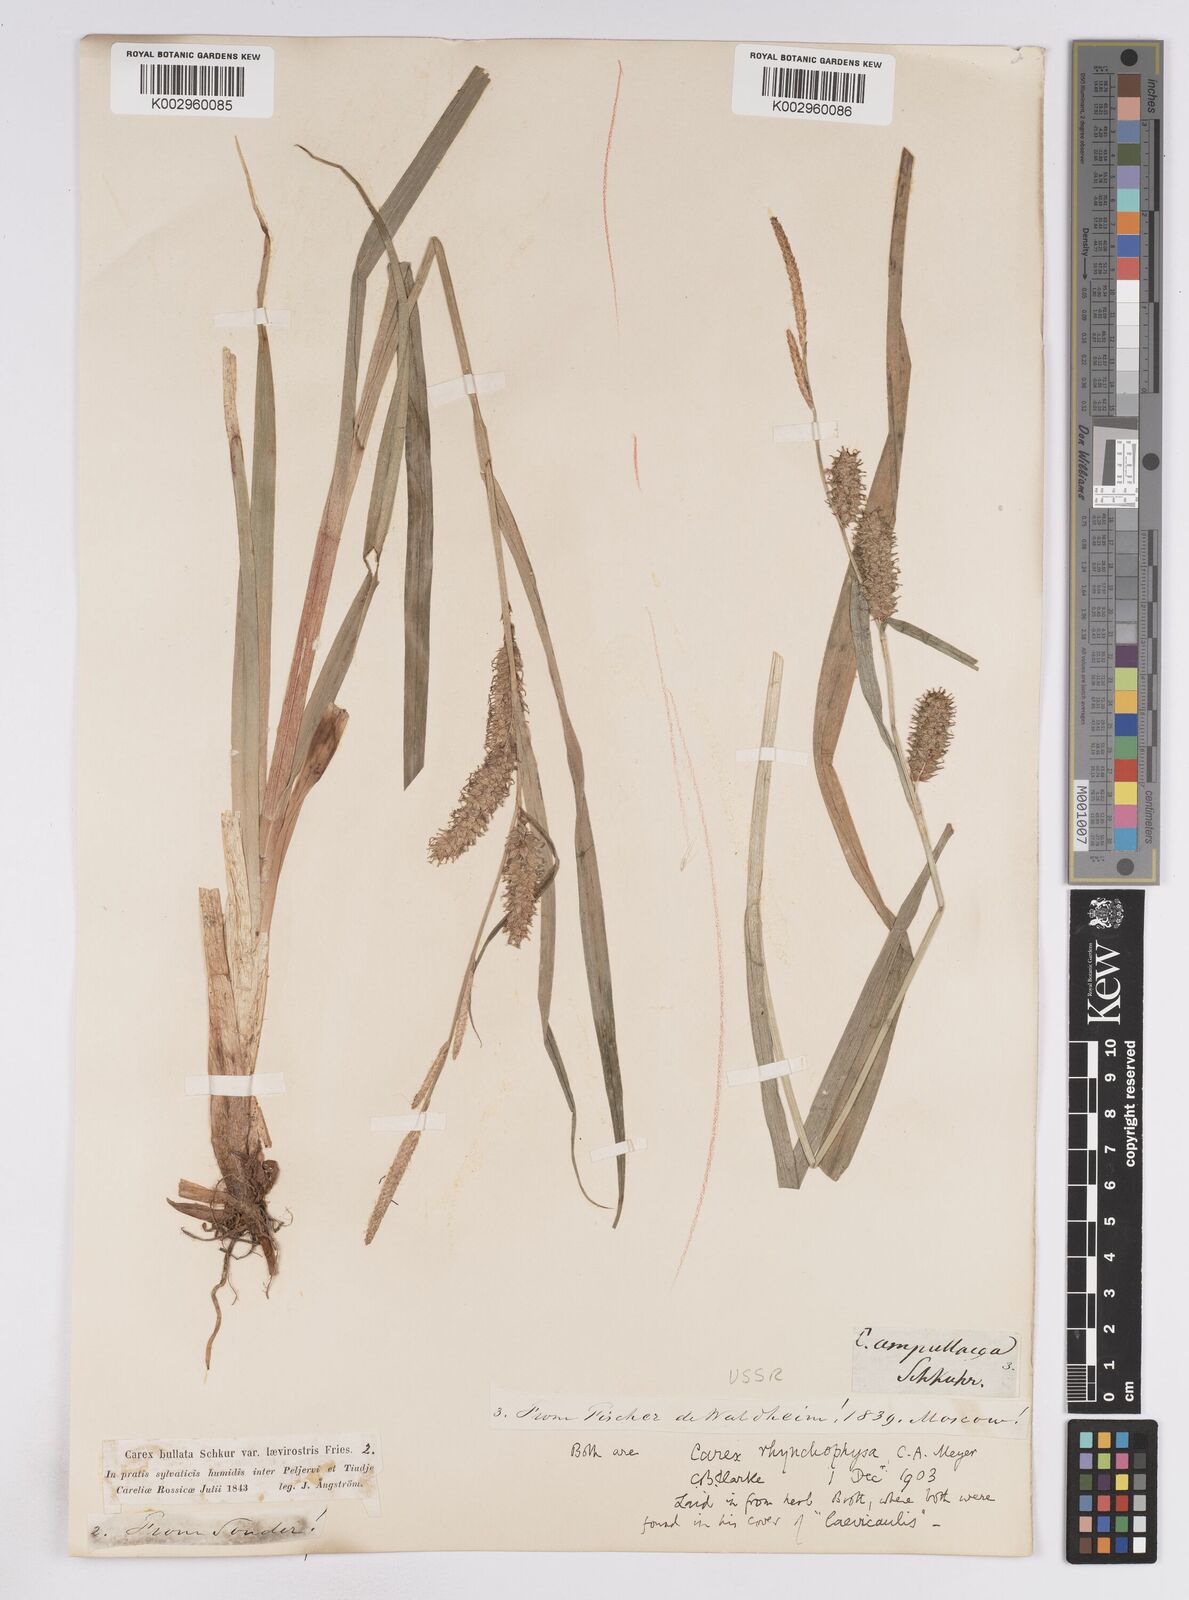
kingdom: Plantae
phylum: Tracheophyta
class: Liliopsida
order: Poales
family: Cyperaceae
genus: Carex
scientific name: Carex utriculata
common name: Beaked sedge
